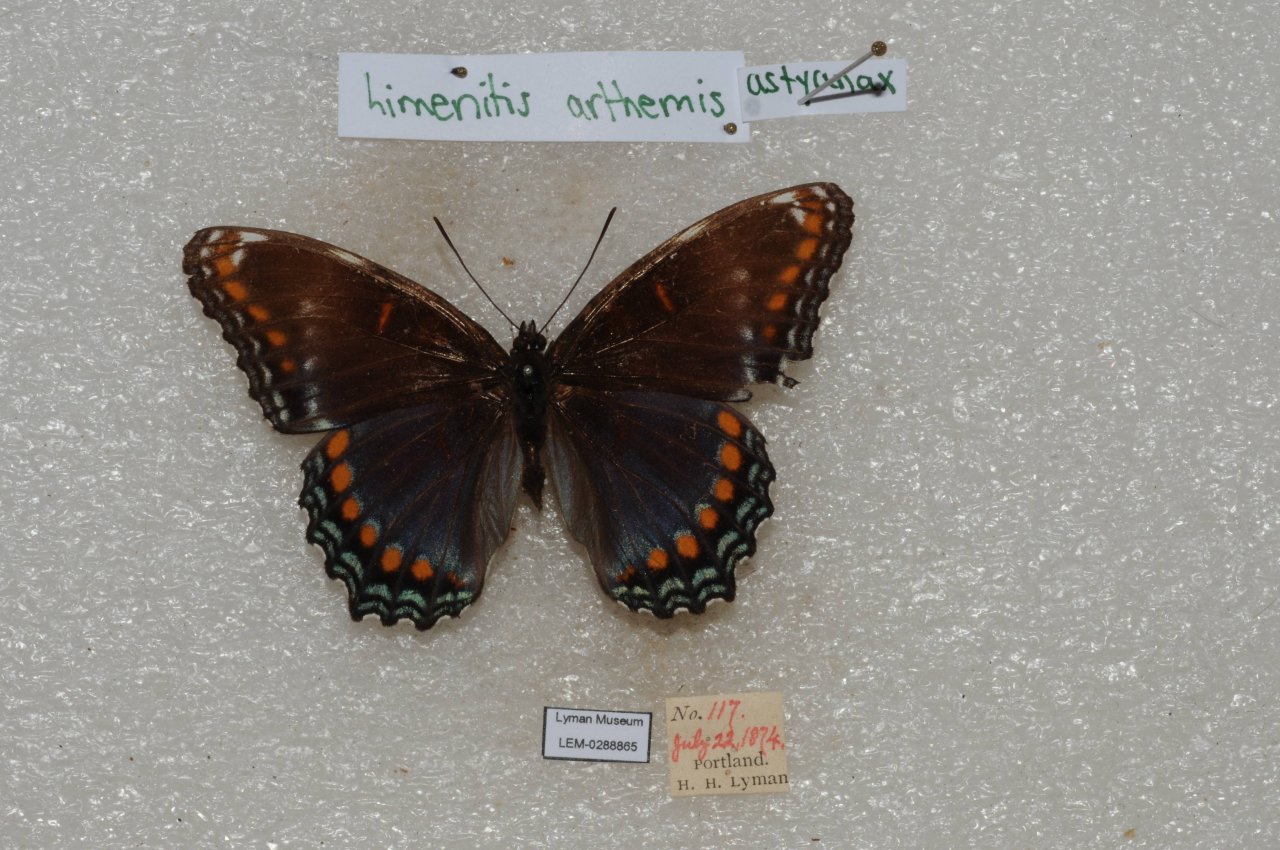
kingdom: Animalia
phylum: Arthropoda
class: Insecta
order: Lepidoptera
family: Nymphalidae
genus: Limenitis
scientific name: Limenitis astyanax
